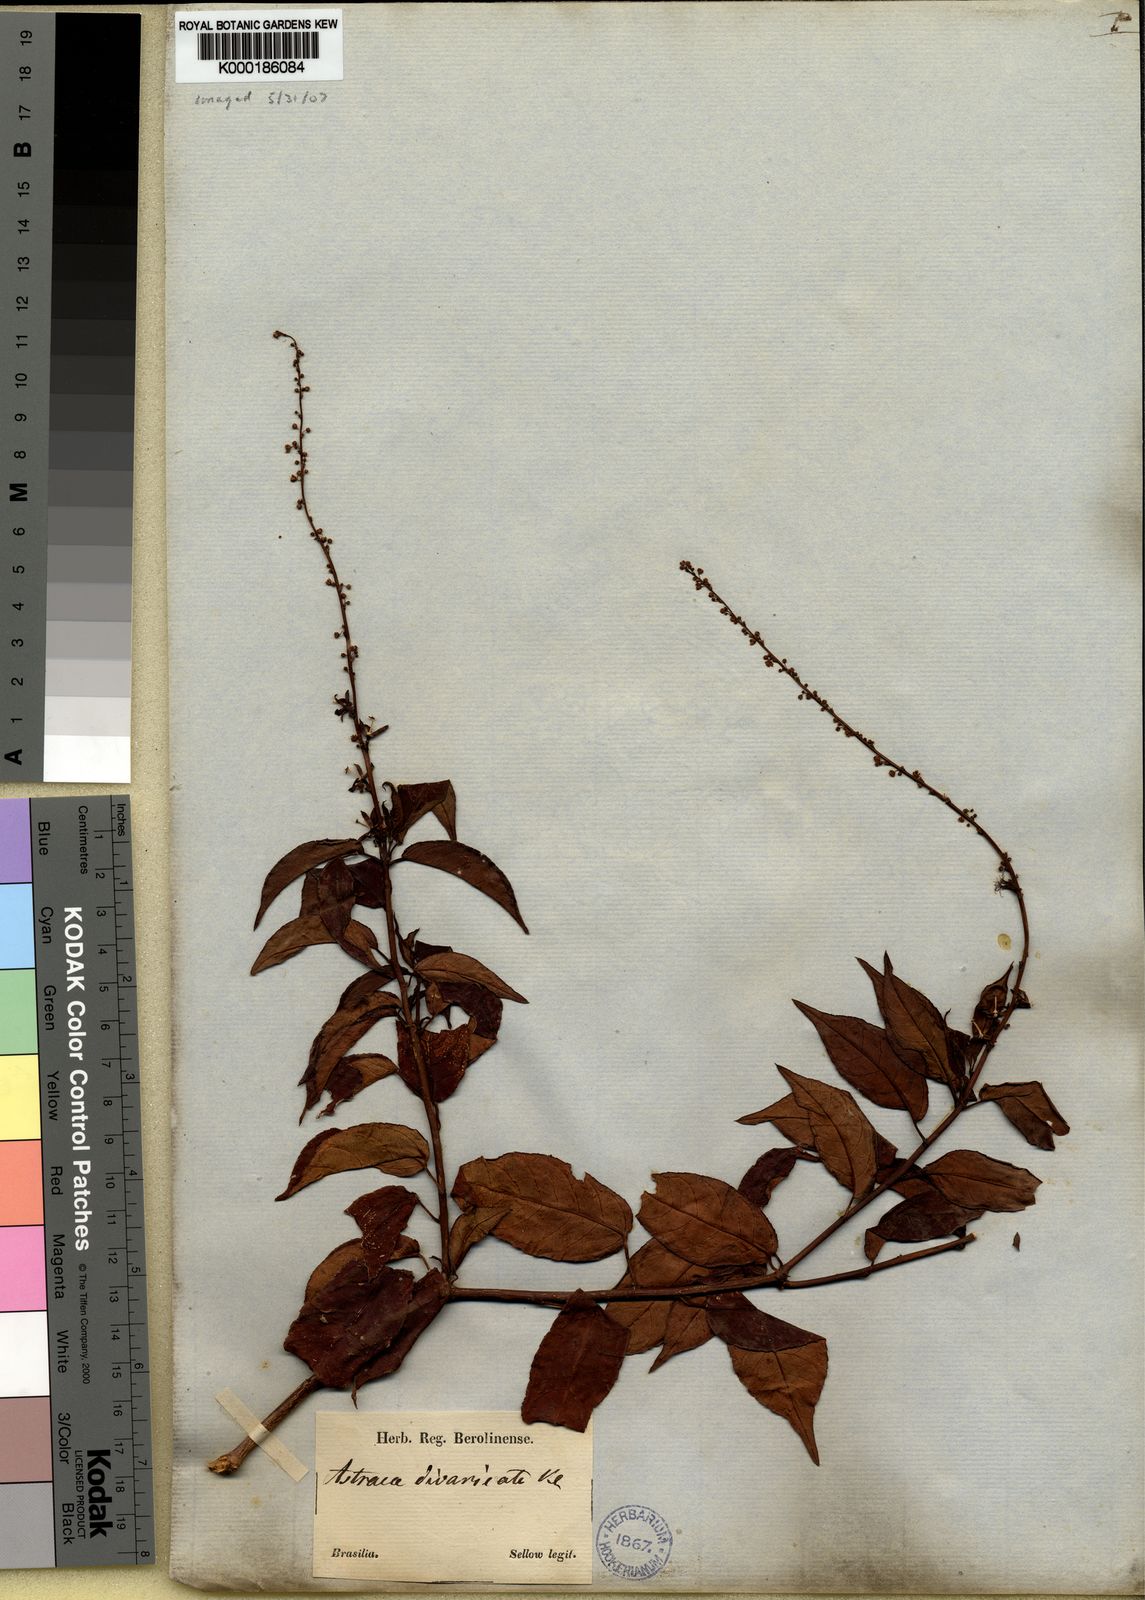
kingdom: Plantae
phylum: Tracheophyta
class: Magnoliopsida
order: Malpighiales
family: Euphorbiaceae
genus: Astraea
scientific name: Astraea
